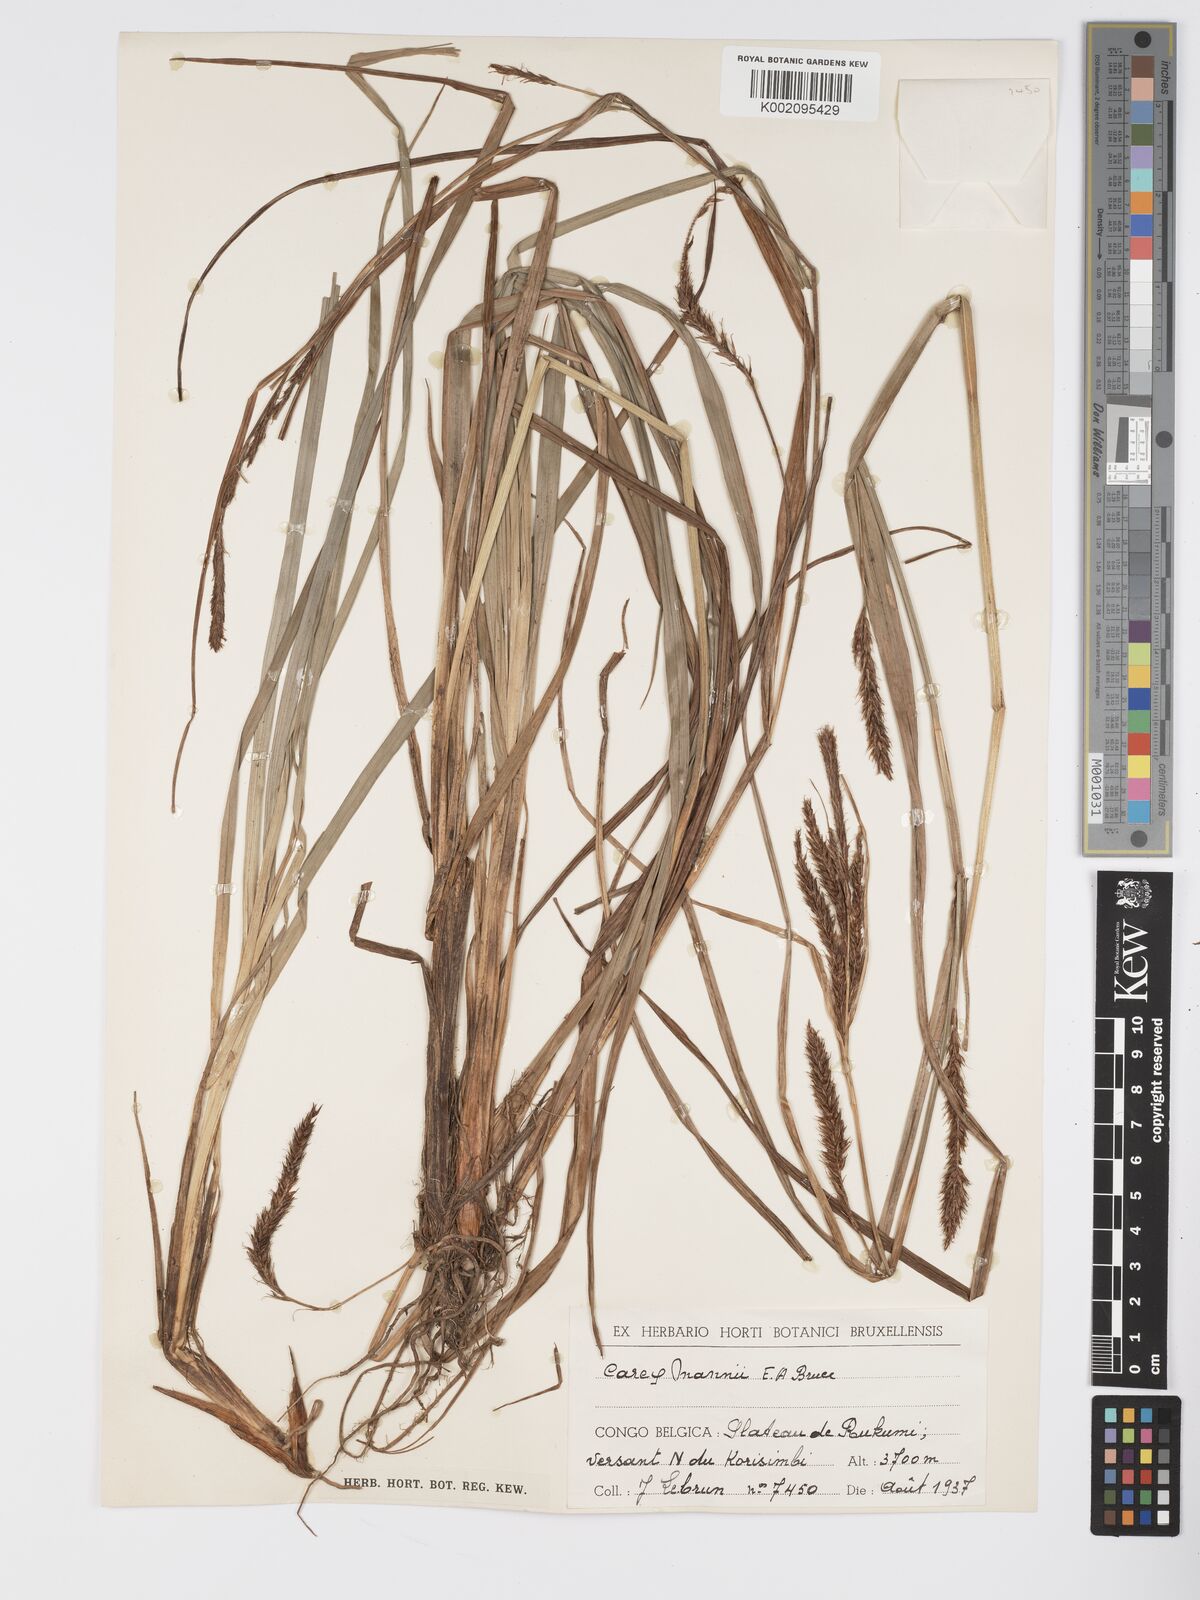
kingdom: Plantae
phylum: Tracheophyta
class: Liliopsida
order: Poales
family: Cyperaceae
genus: Carex
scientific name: Carex fischeri
